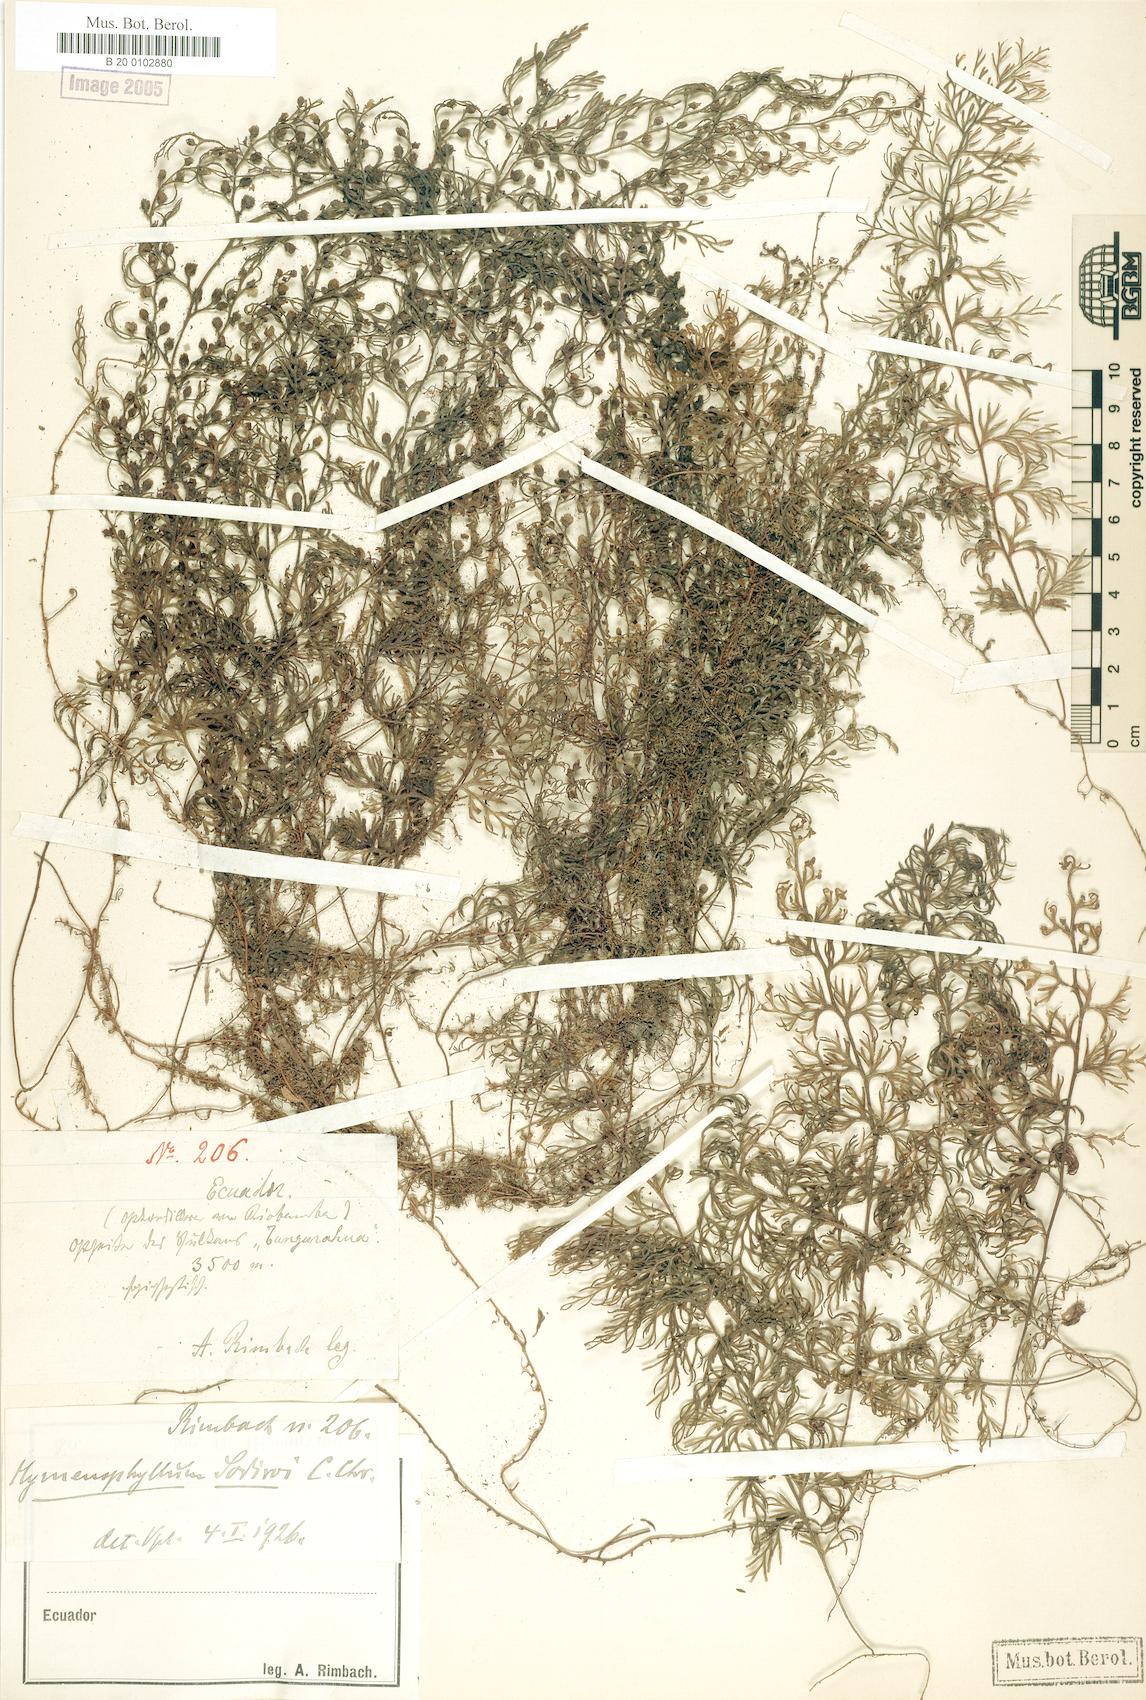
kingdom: Plantae
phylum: Tracheophyta
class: Polypodiopsida
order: Hymenophyllales
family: Hymenophyllaceae
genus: Hymenophyllum
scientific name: Hymenophyllum sodiroi
